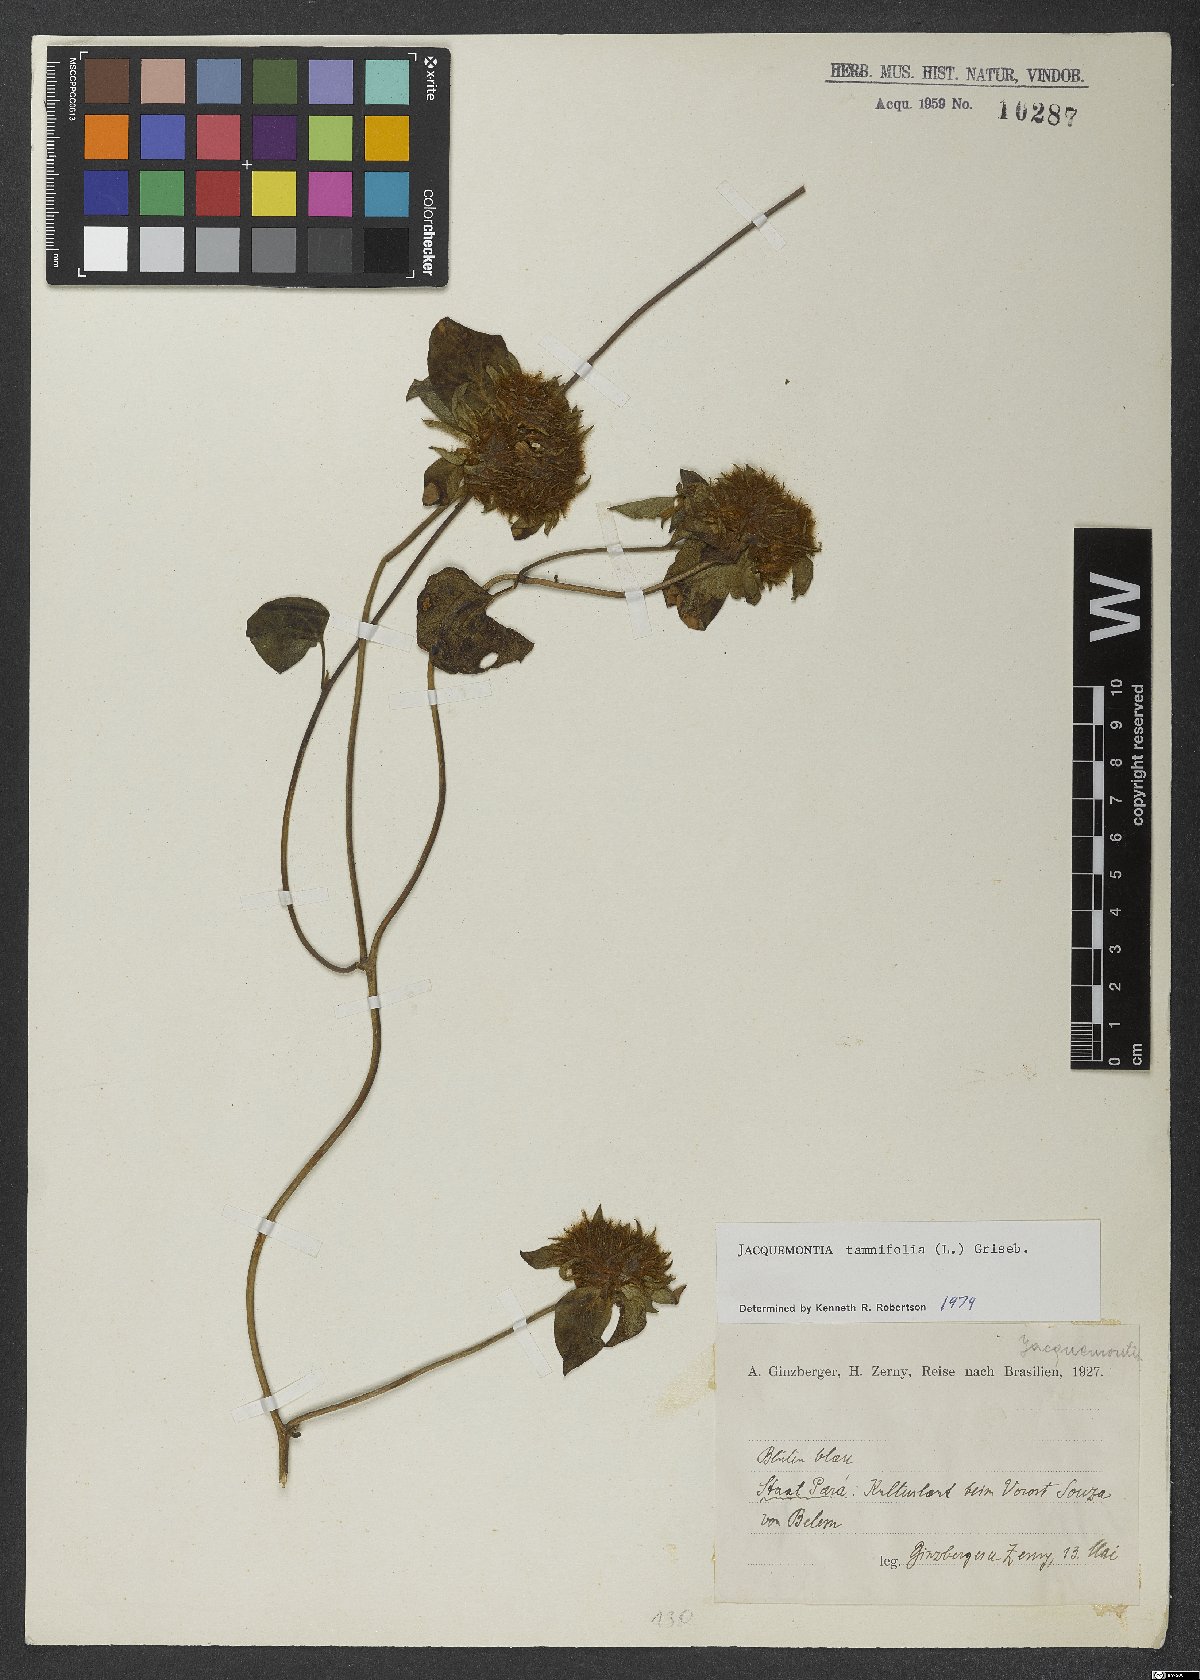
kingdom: Plantae
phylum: Tracheophyta
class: Magnoliopsida
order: Solanales
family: Convolvulaceae
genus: Jacquemontia
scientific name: Jacquemontia tamnifolia
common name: Hairy clustervine
